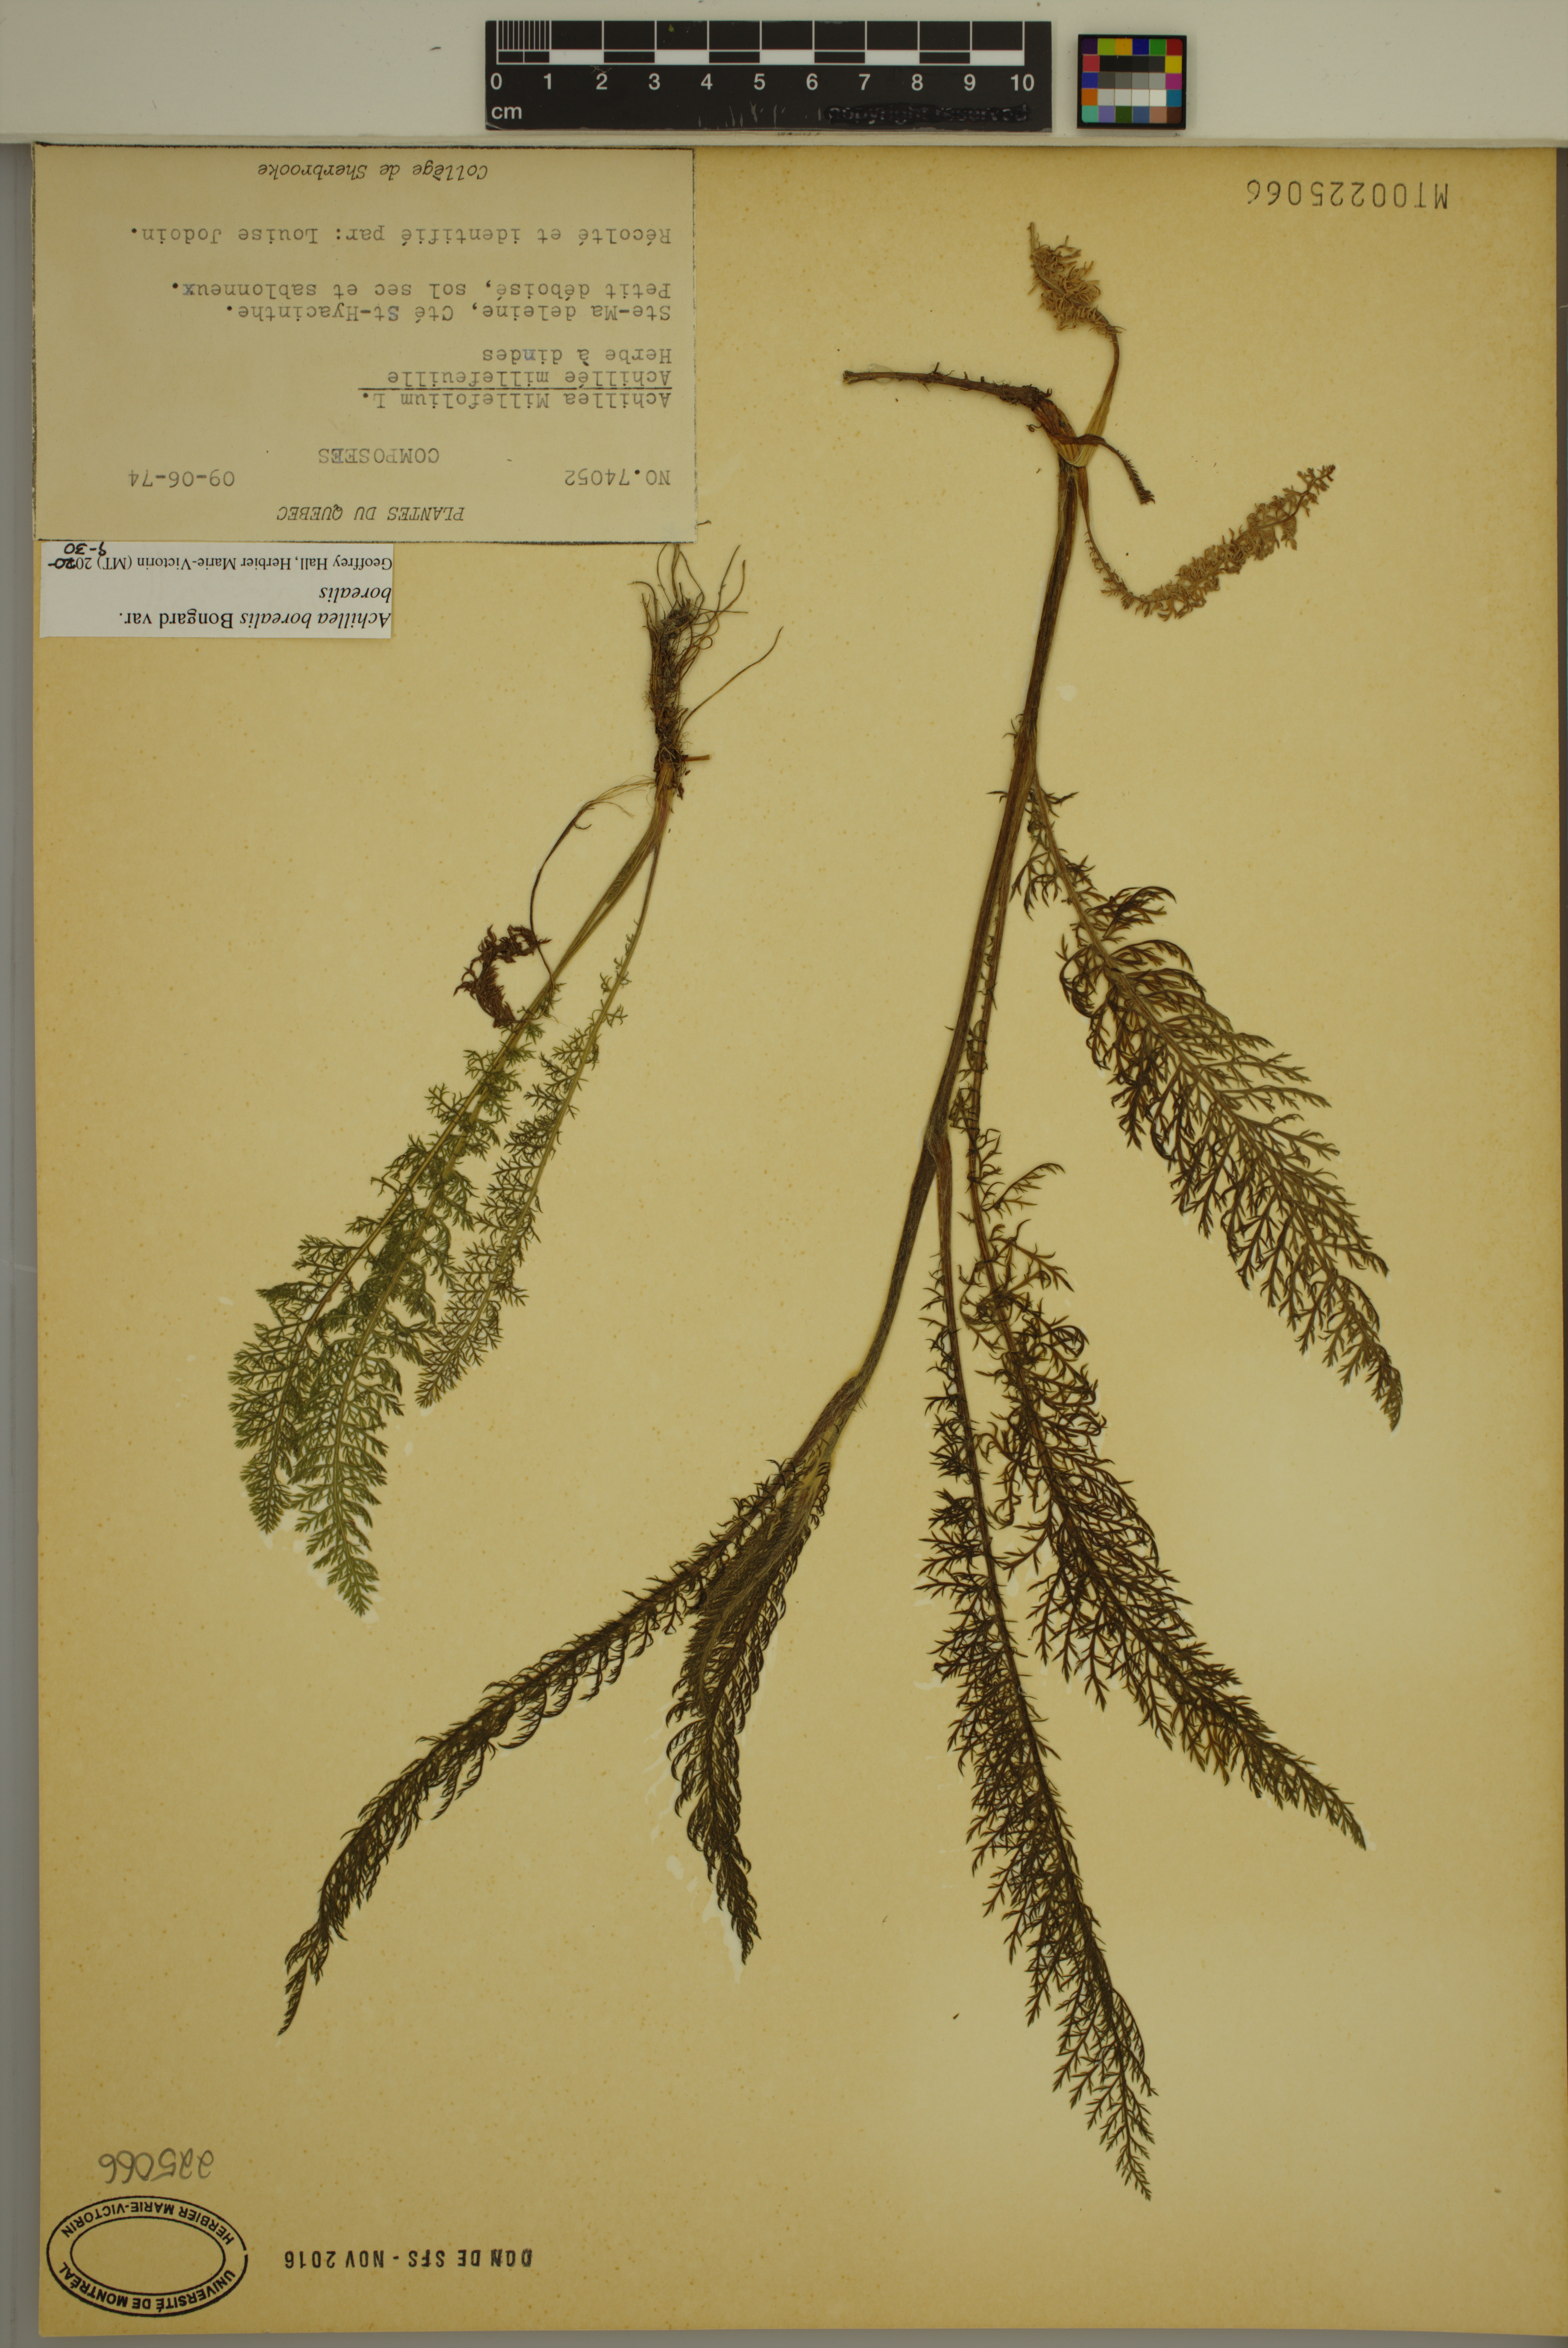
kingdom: Plantae
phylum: Tracheophyta
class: Magnoliopsida
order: Asterales
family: Asteraceae
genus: Achillea
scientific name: Achillea millefolium
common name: Yarrow
